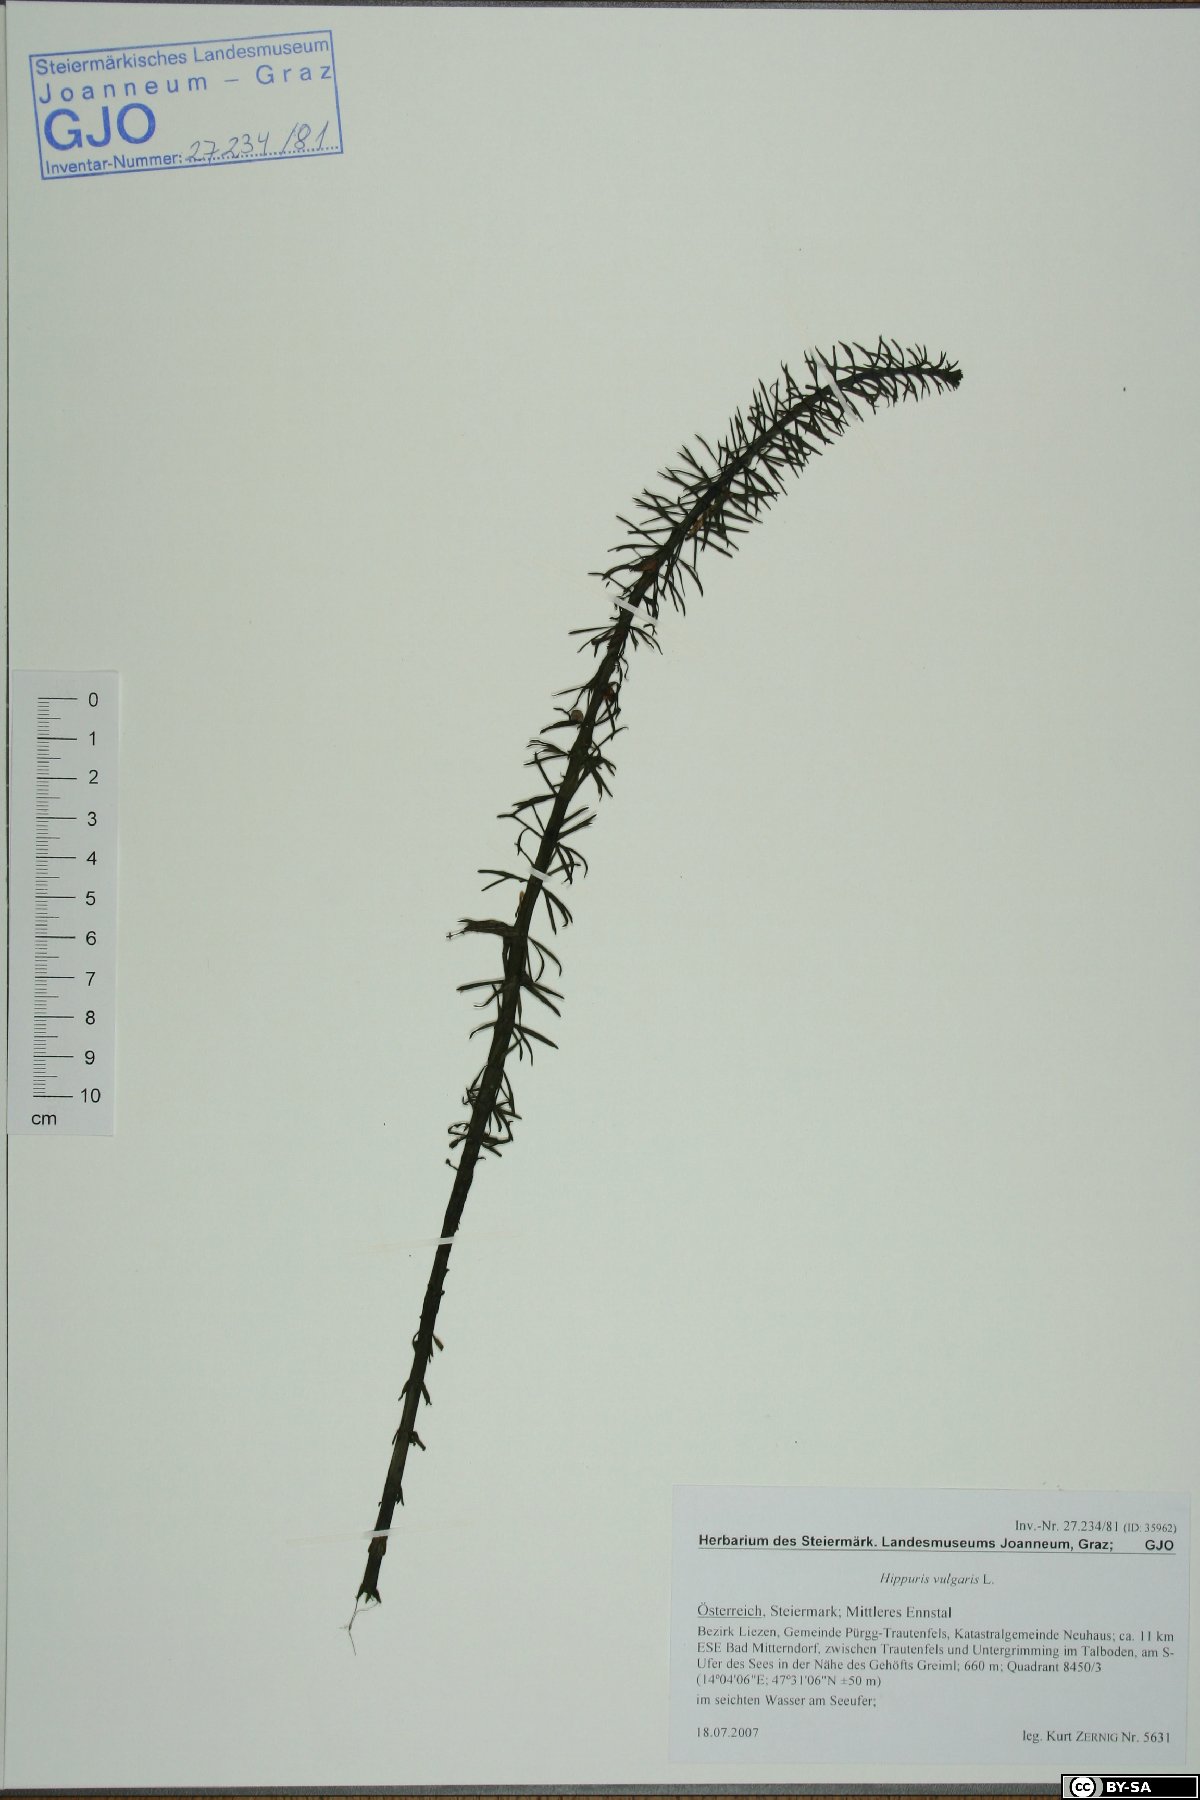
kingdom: Plantae
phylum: Tracheophyta
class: Magnoliopsida
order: Lamiales
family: Plantaginaceae
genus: Hippuris
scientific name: Hippuris vulgaris
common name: Mare's-tail
